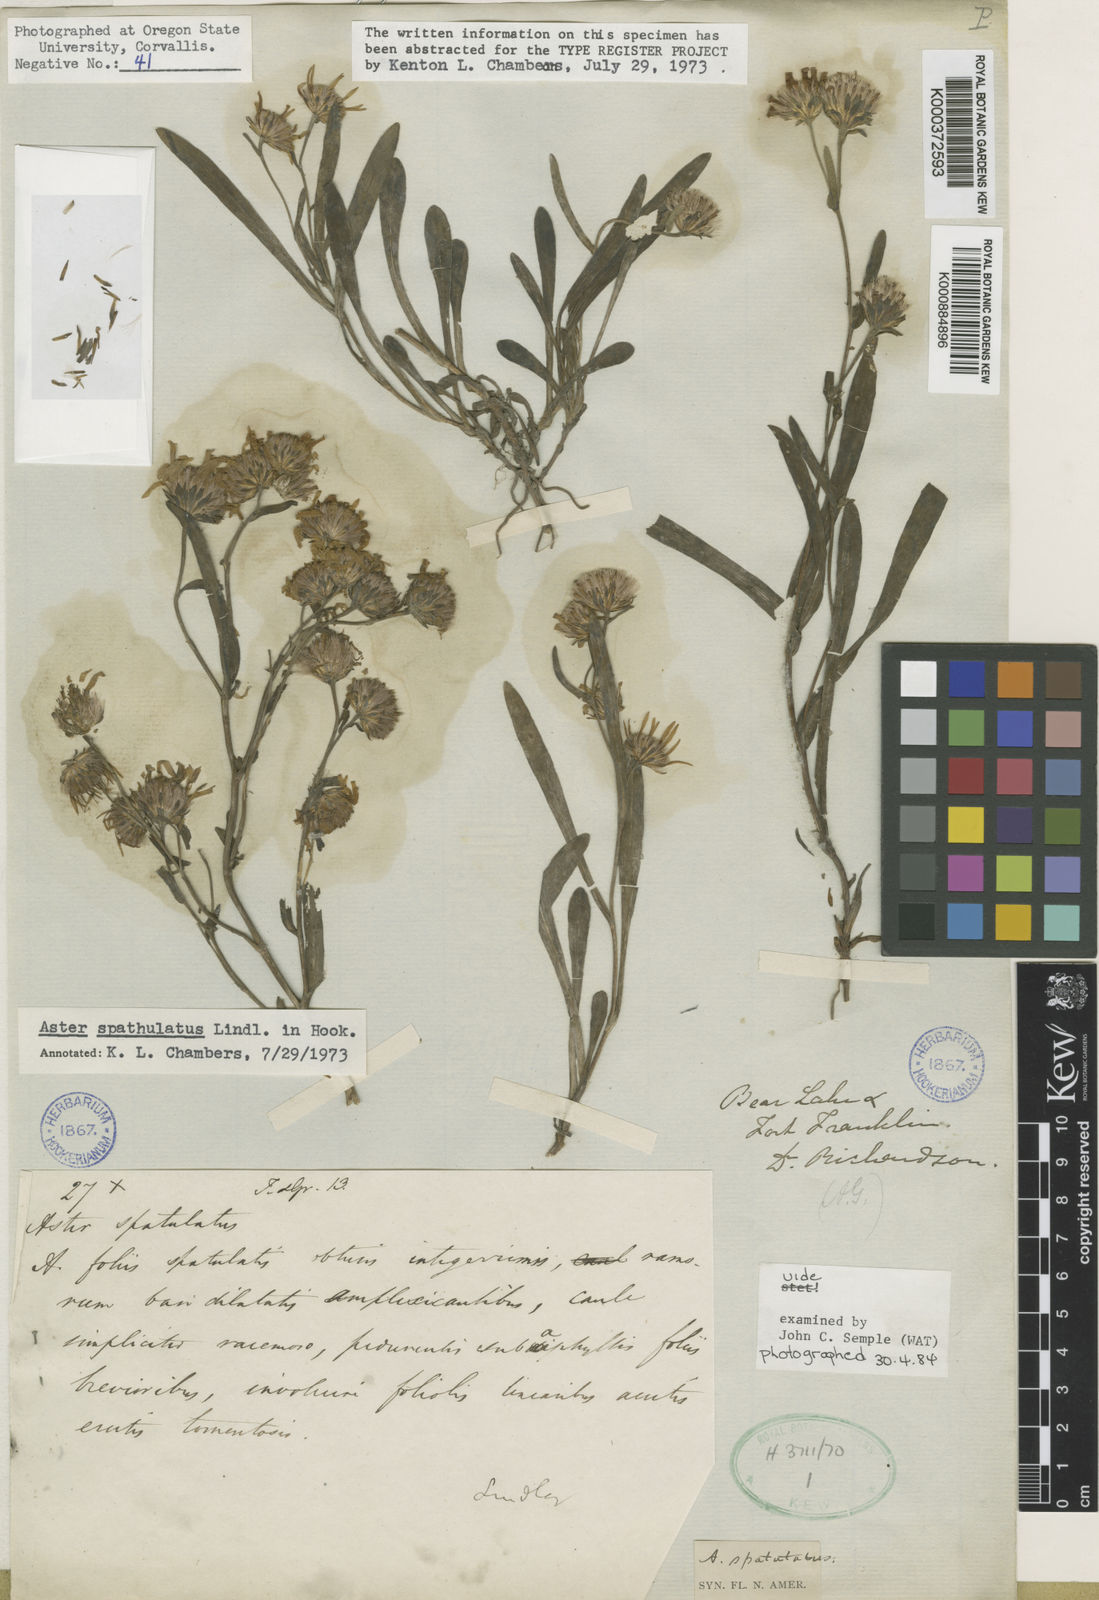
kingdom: Plantae
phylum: Tracheophyta
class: Magnoliopsida
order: Asterales
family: Asteraceae
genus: Symphyotrichum
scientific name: Symphyotrichum spathulatum
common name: Western mountain aster
